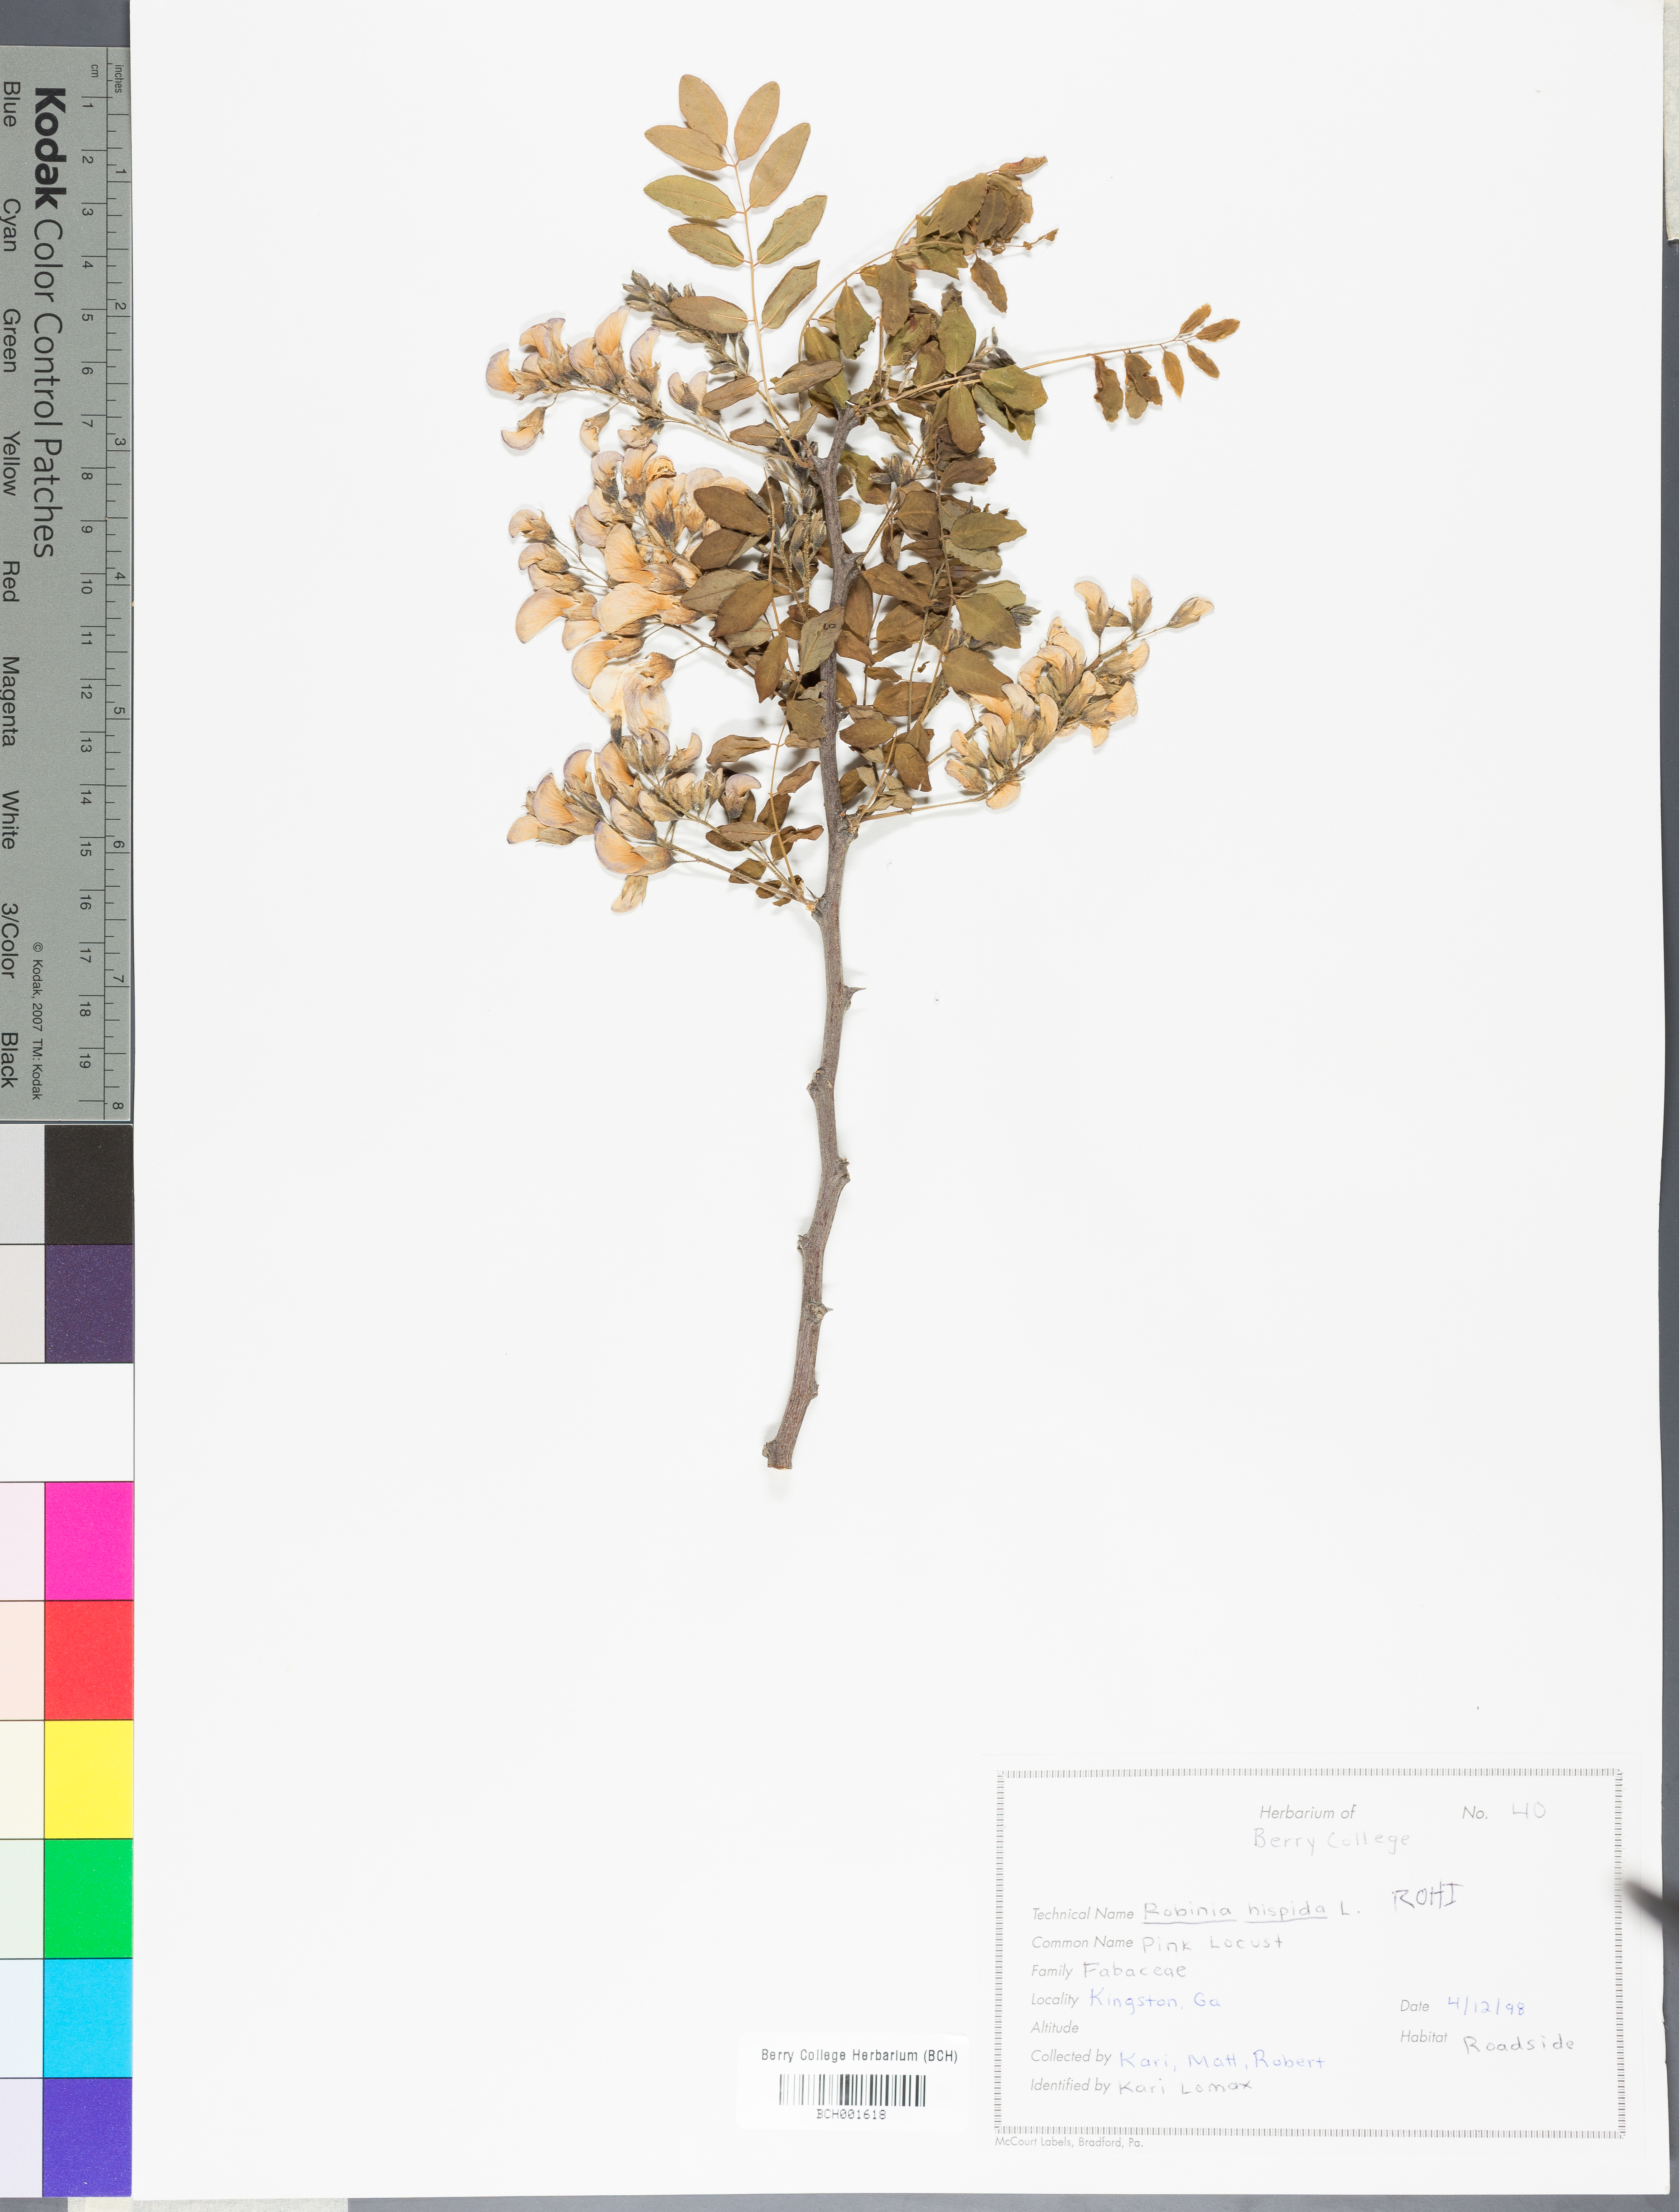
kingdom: Plantae
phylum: Tracheophyta
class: Magnoliopsida
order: Fabales
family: Fabaceae
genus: Robinia
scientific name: Robinia hispida
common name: Bristly locust
